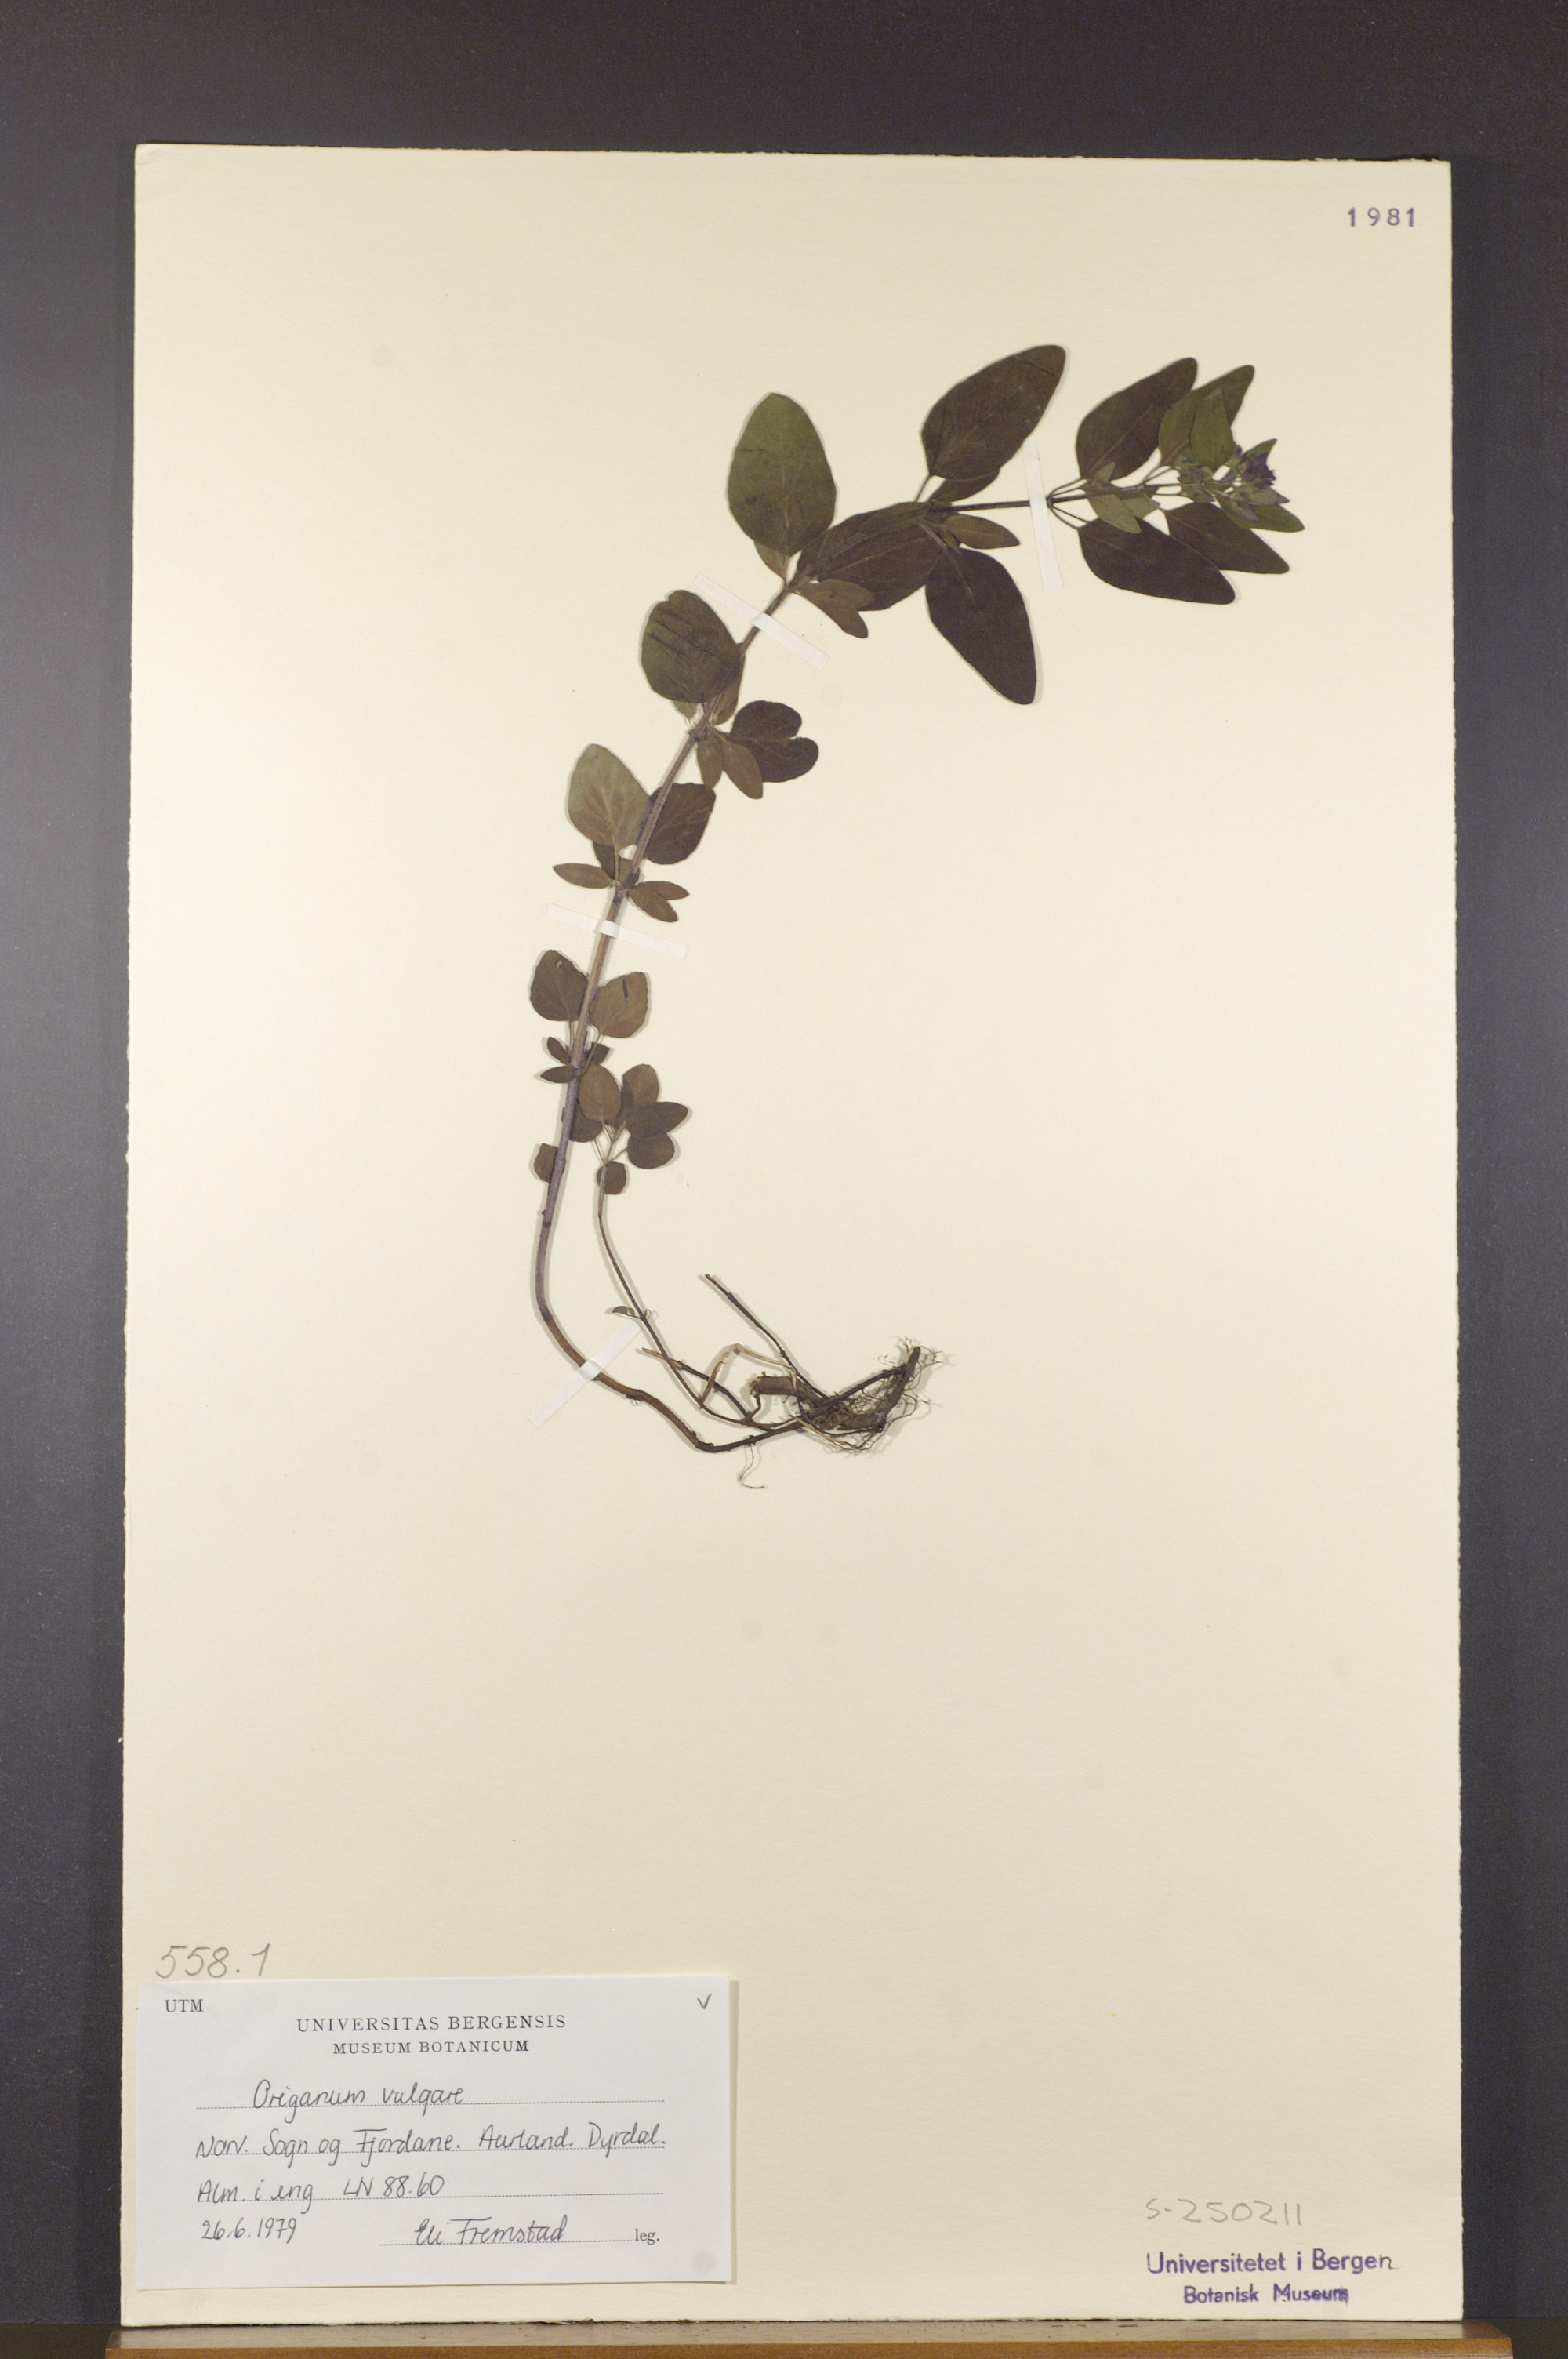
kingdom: Plantae
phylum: Tracheophyta
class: Magnoliopsida
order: Lamiales
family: Lamiaceae
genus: Origanum
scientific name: Origanum vulgare
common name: Wild marjoram
